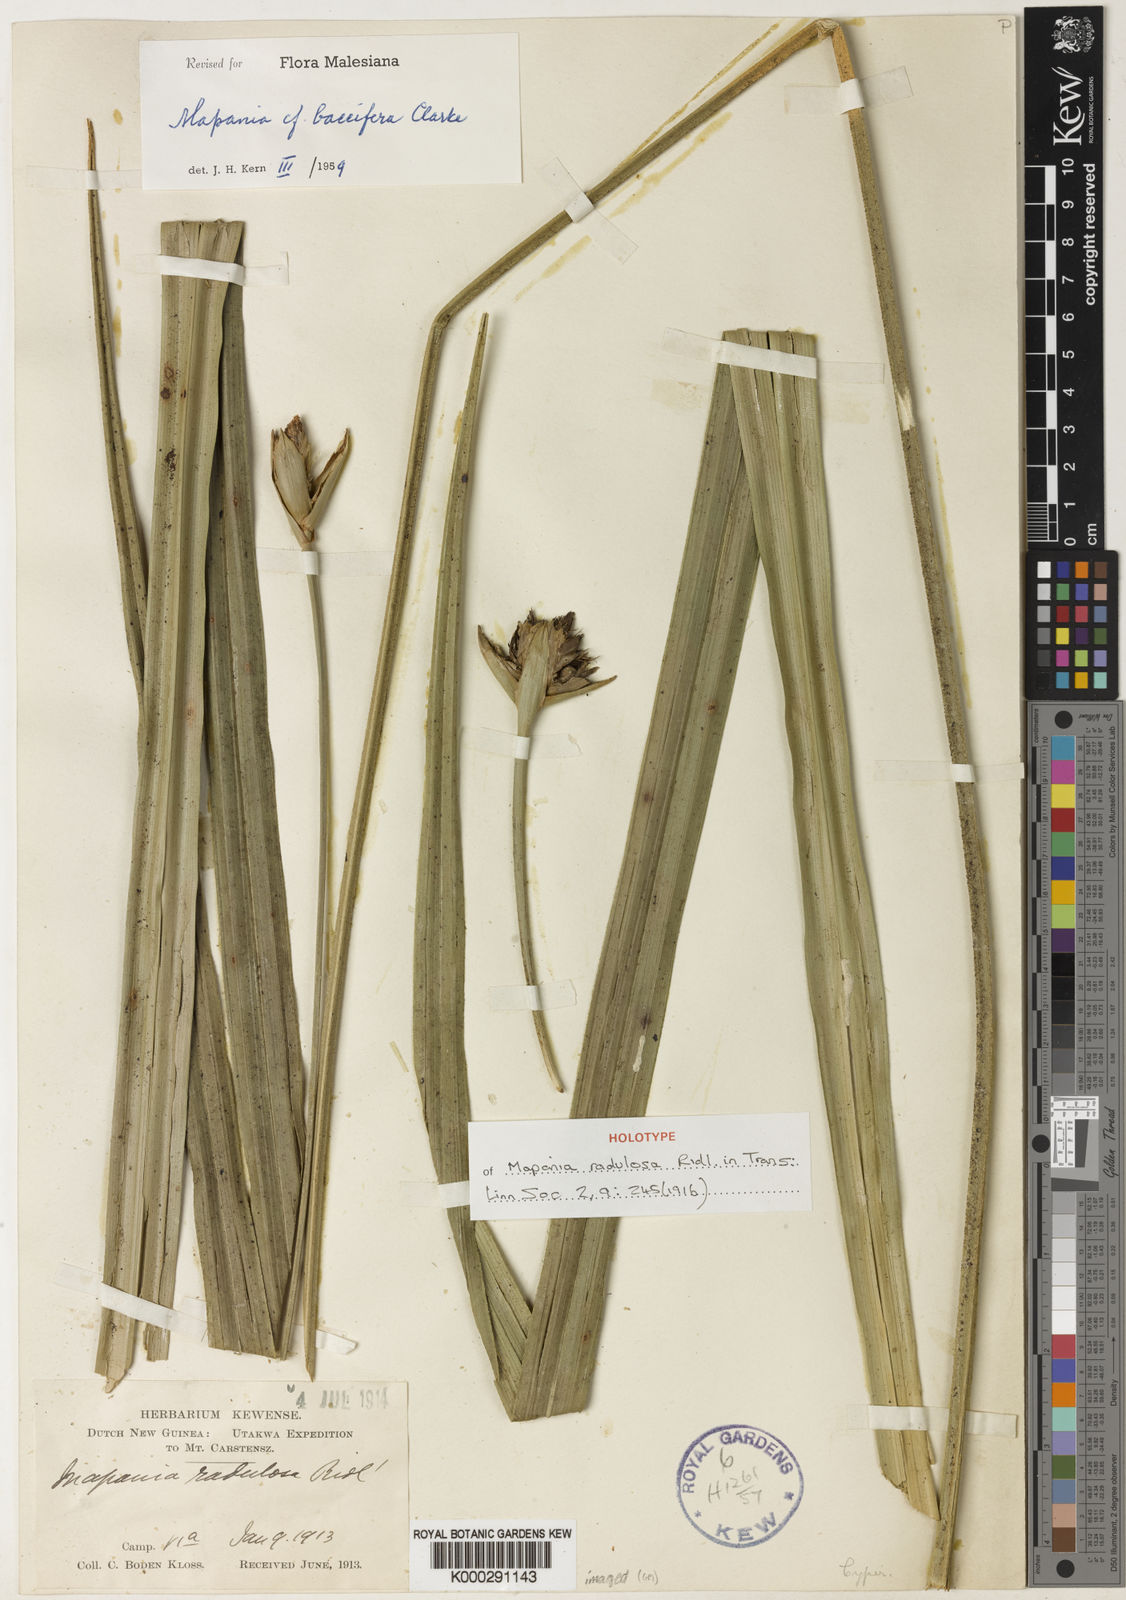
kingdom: Plantae
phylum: Tracheophyta
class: Liliopsida
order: Poales
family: Cyperaceae
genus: Mapania
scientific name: Mapania baccifera
